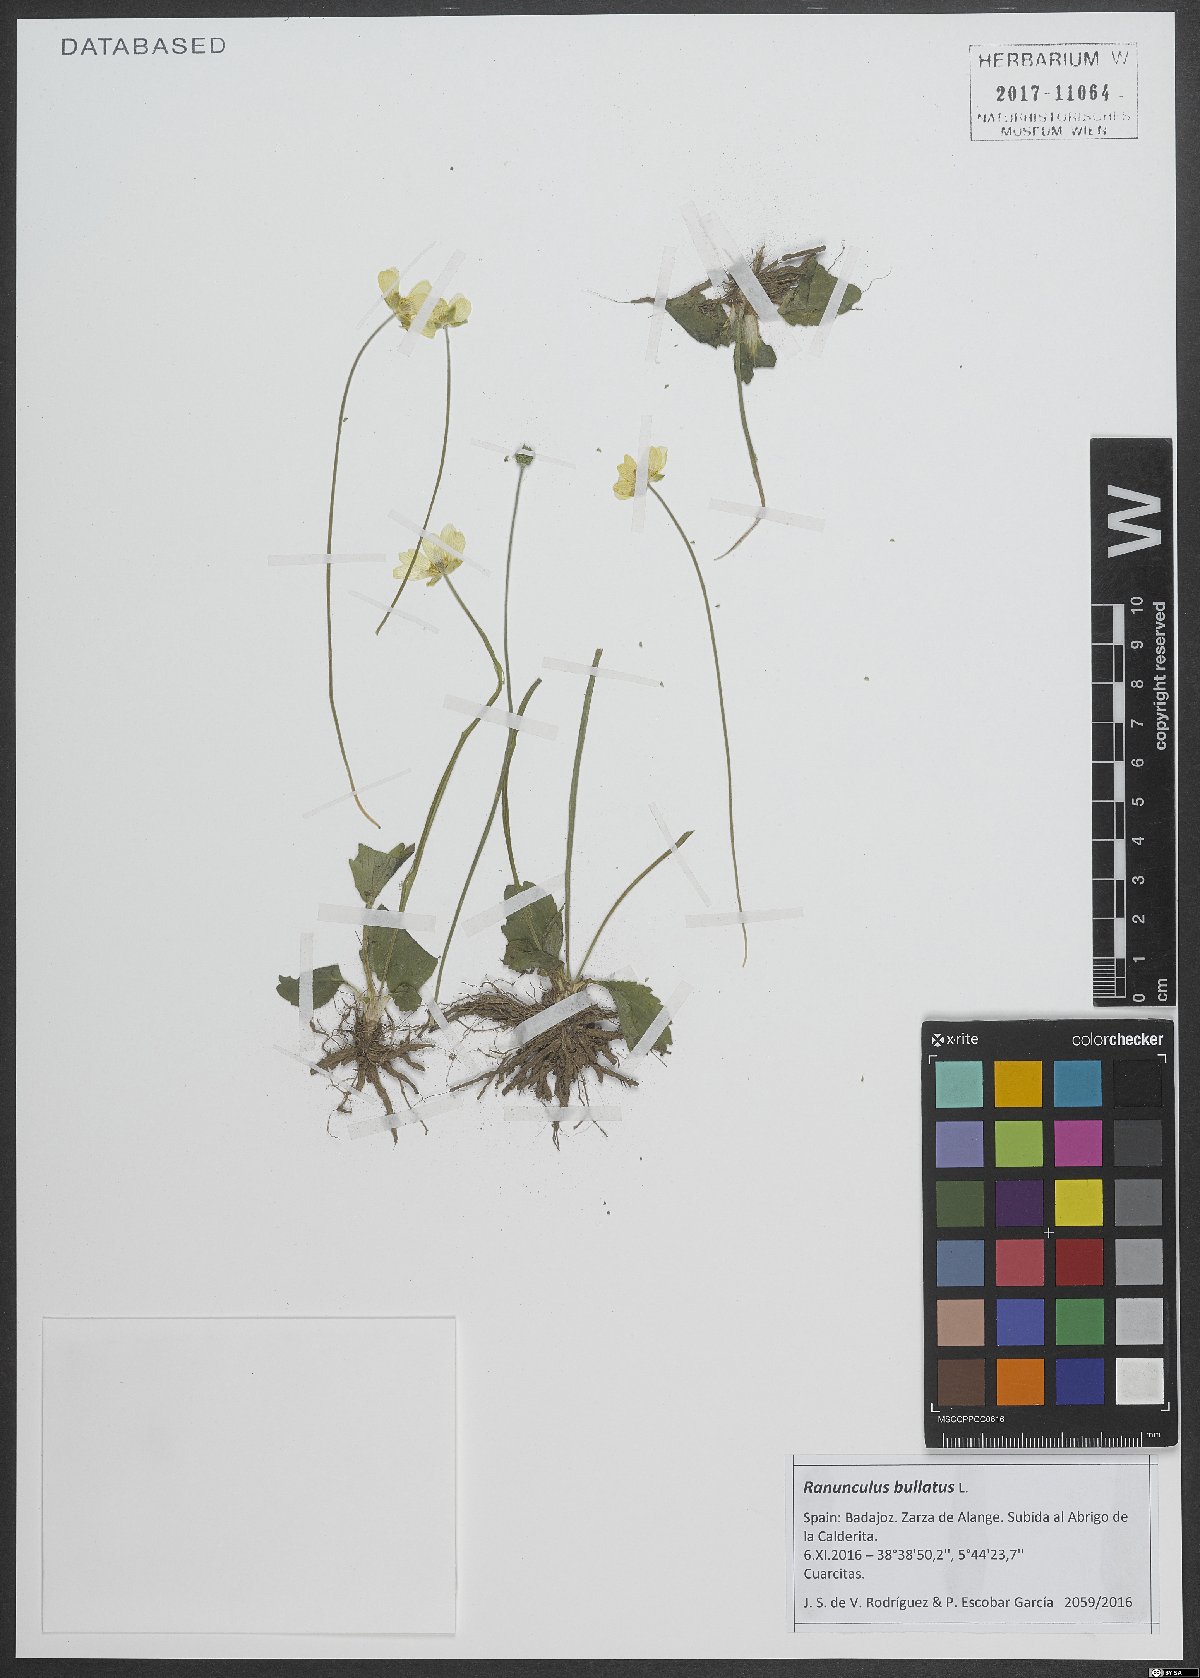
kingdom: Plantae
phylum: Tracheophyta
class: Magnoliopsida
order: Ranunculales
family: Ranunculaceae
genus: Ranunculus
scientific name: Ranunculus bullatus
